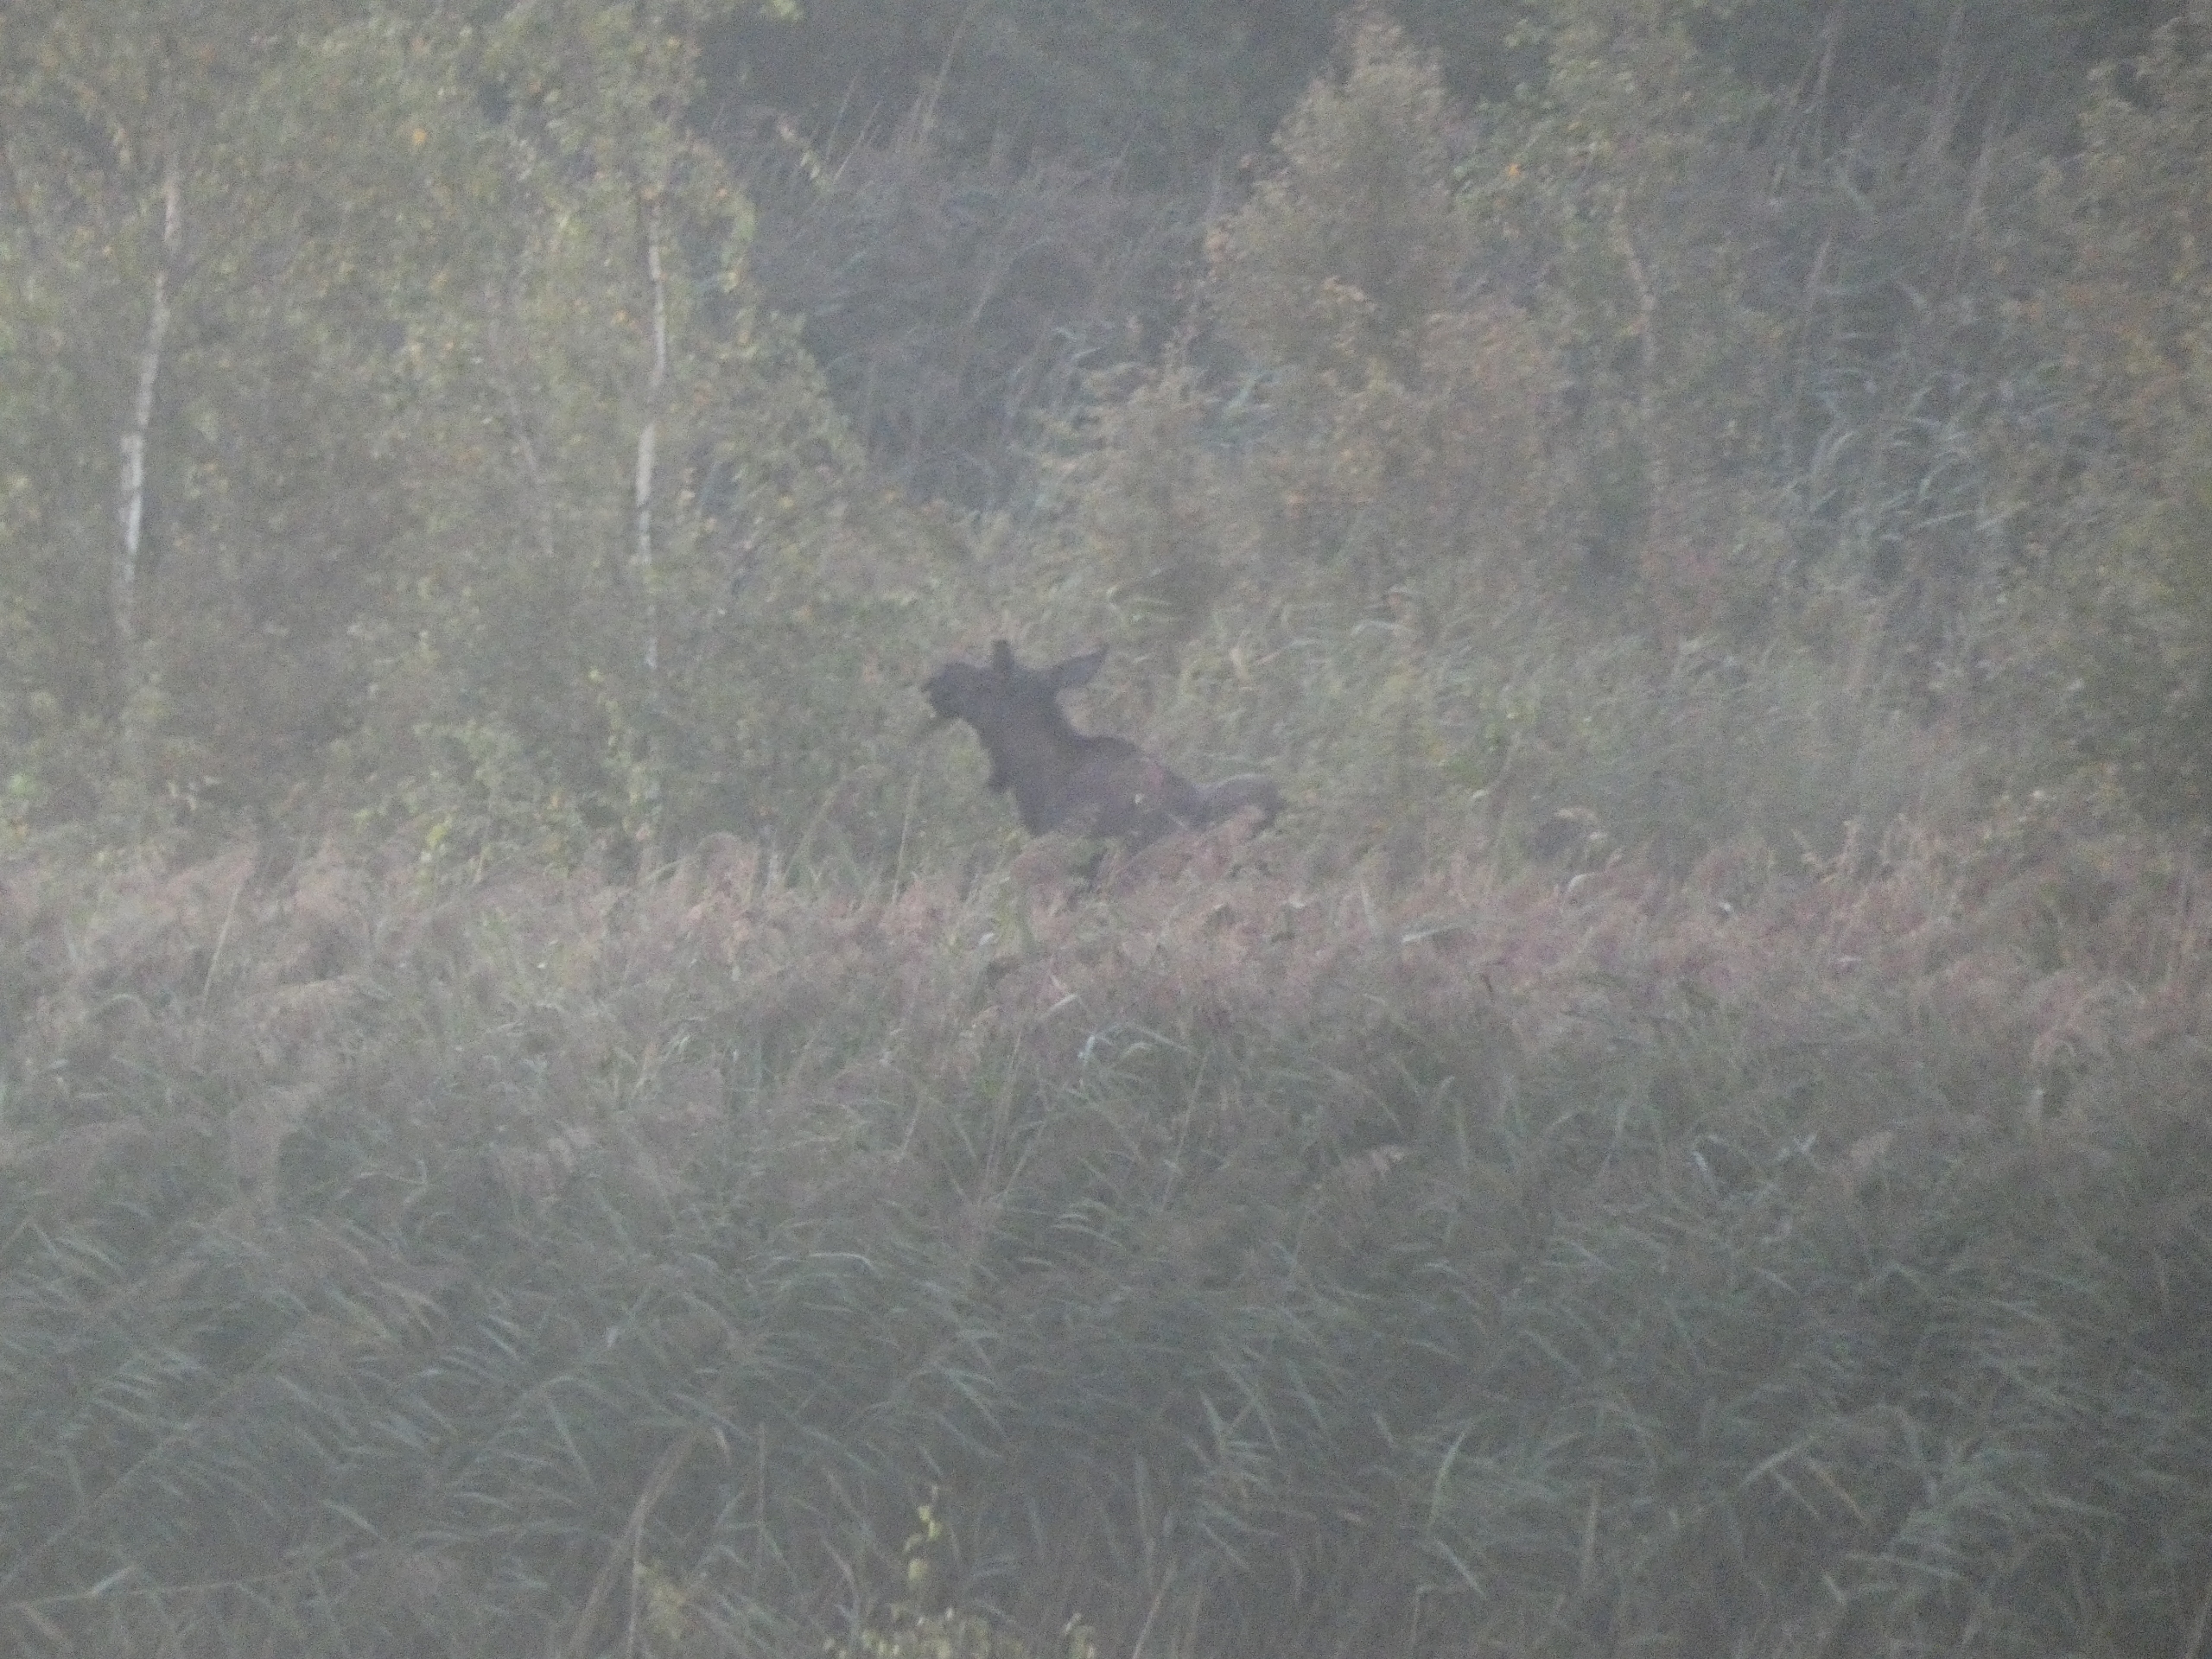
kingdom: Animalia
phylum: Chordata
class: Mammalia
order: Artiodactyla
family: Cervidae
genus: Alces
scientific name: Alces alces
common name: Elg
